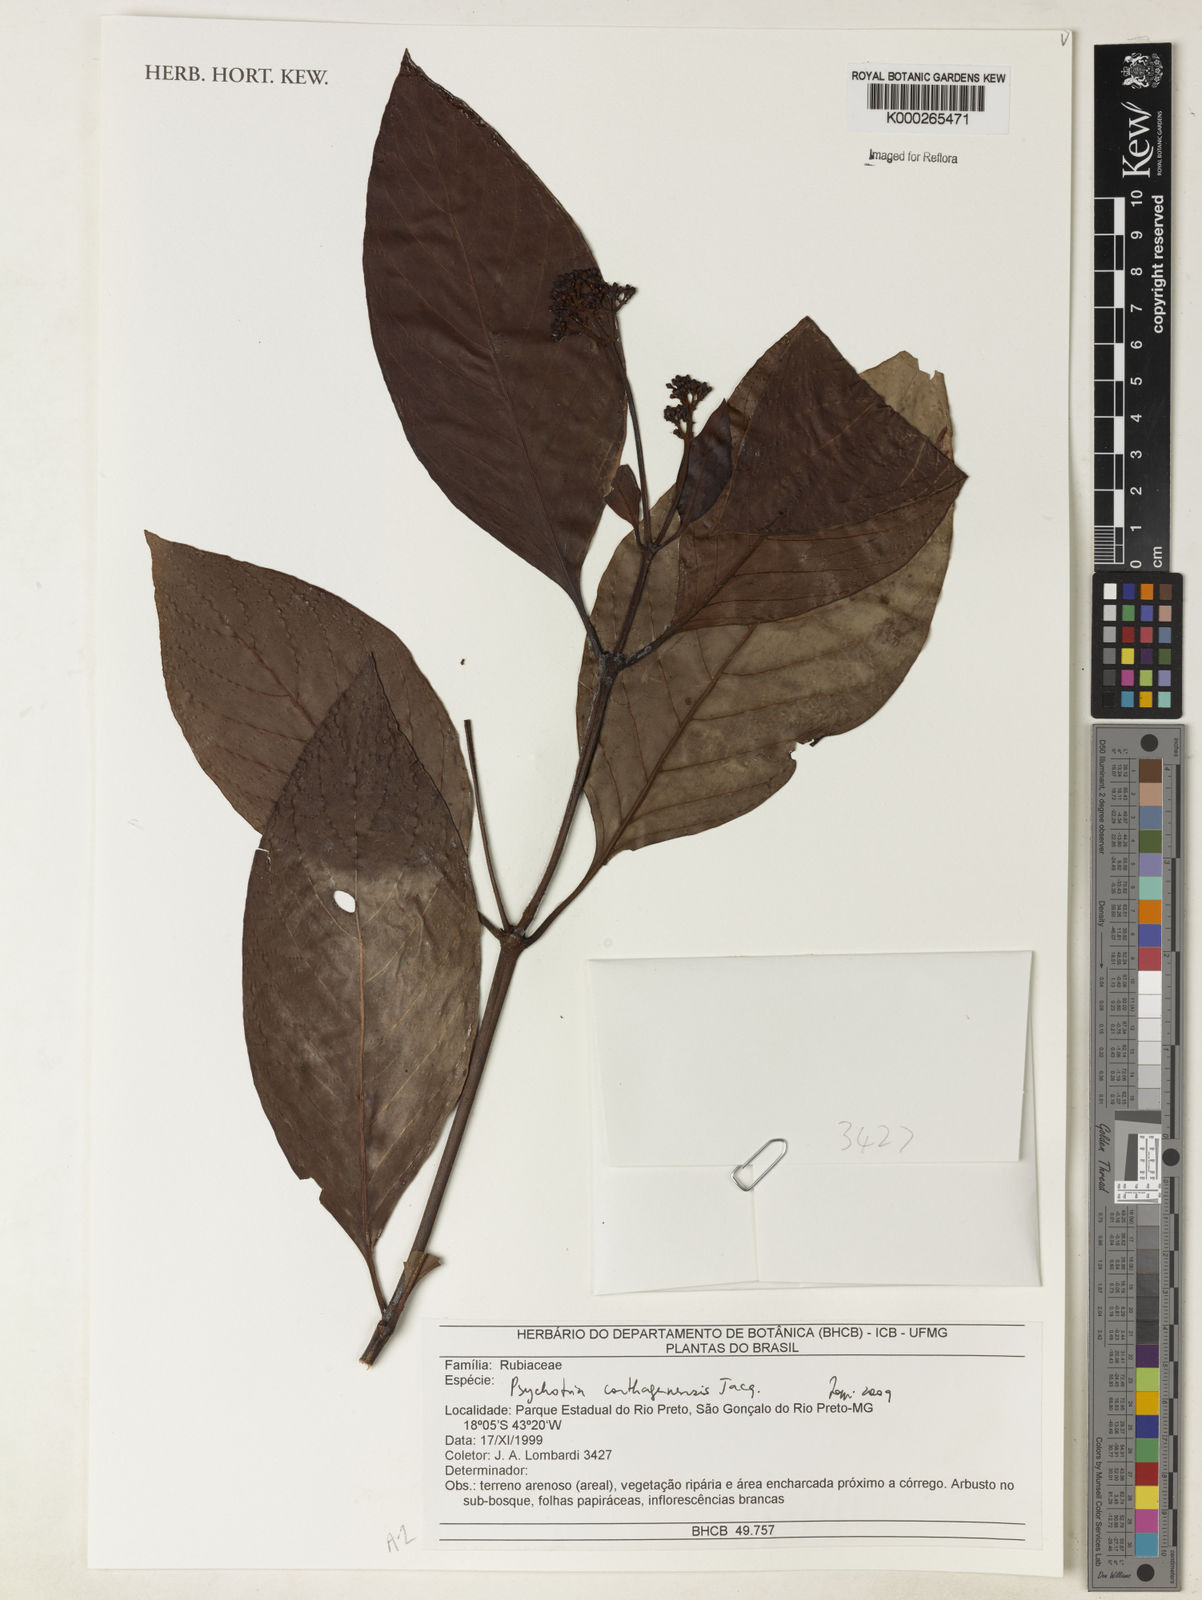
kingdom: Plantae
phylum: Tracheophyta
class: Magnoliopsida
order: Gentianales
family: Rubiaceae
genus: Psychotria
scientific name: Psychotria carthagenensis
